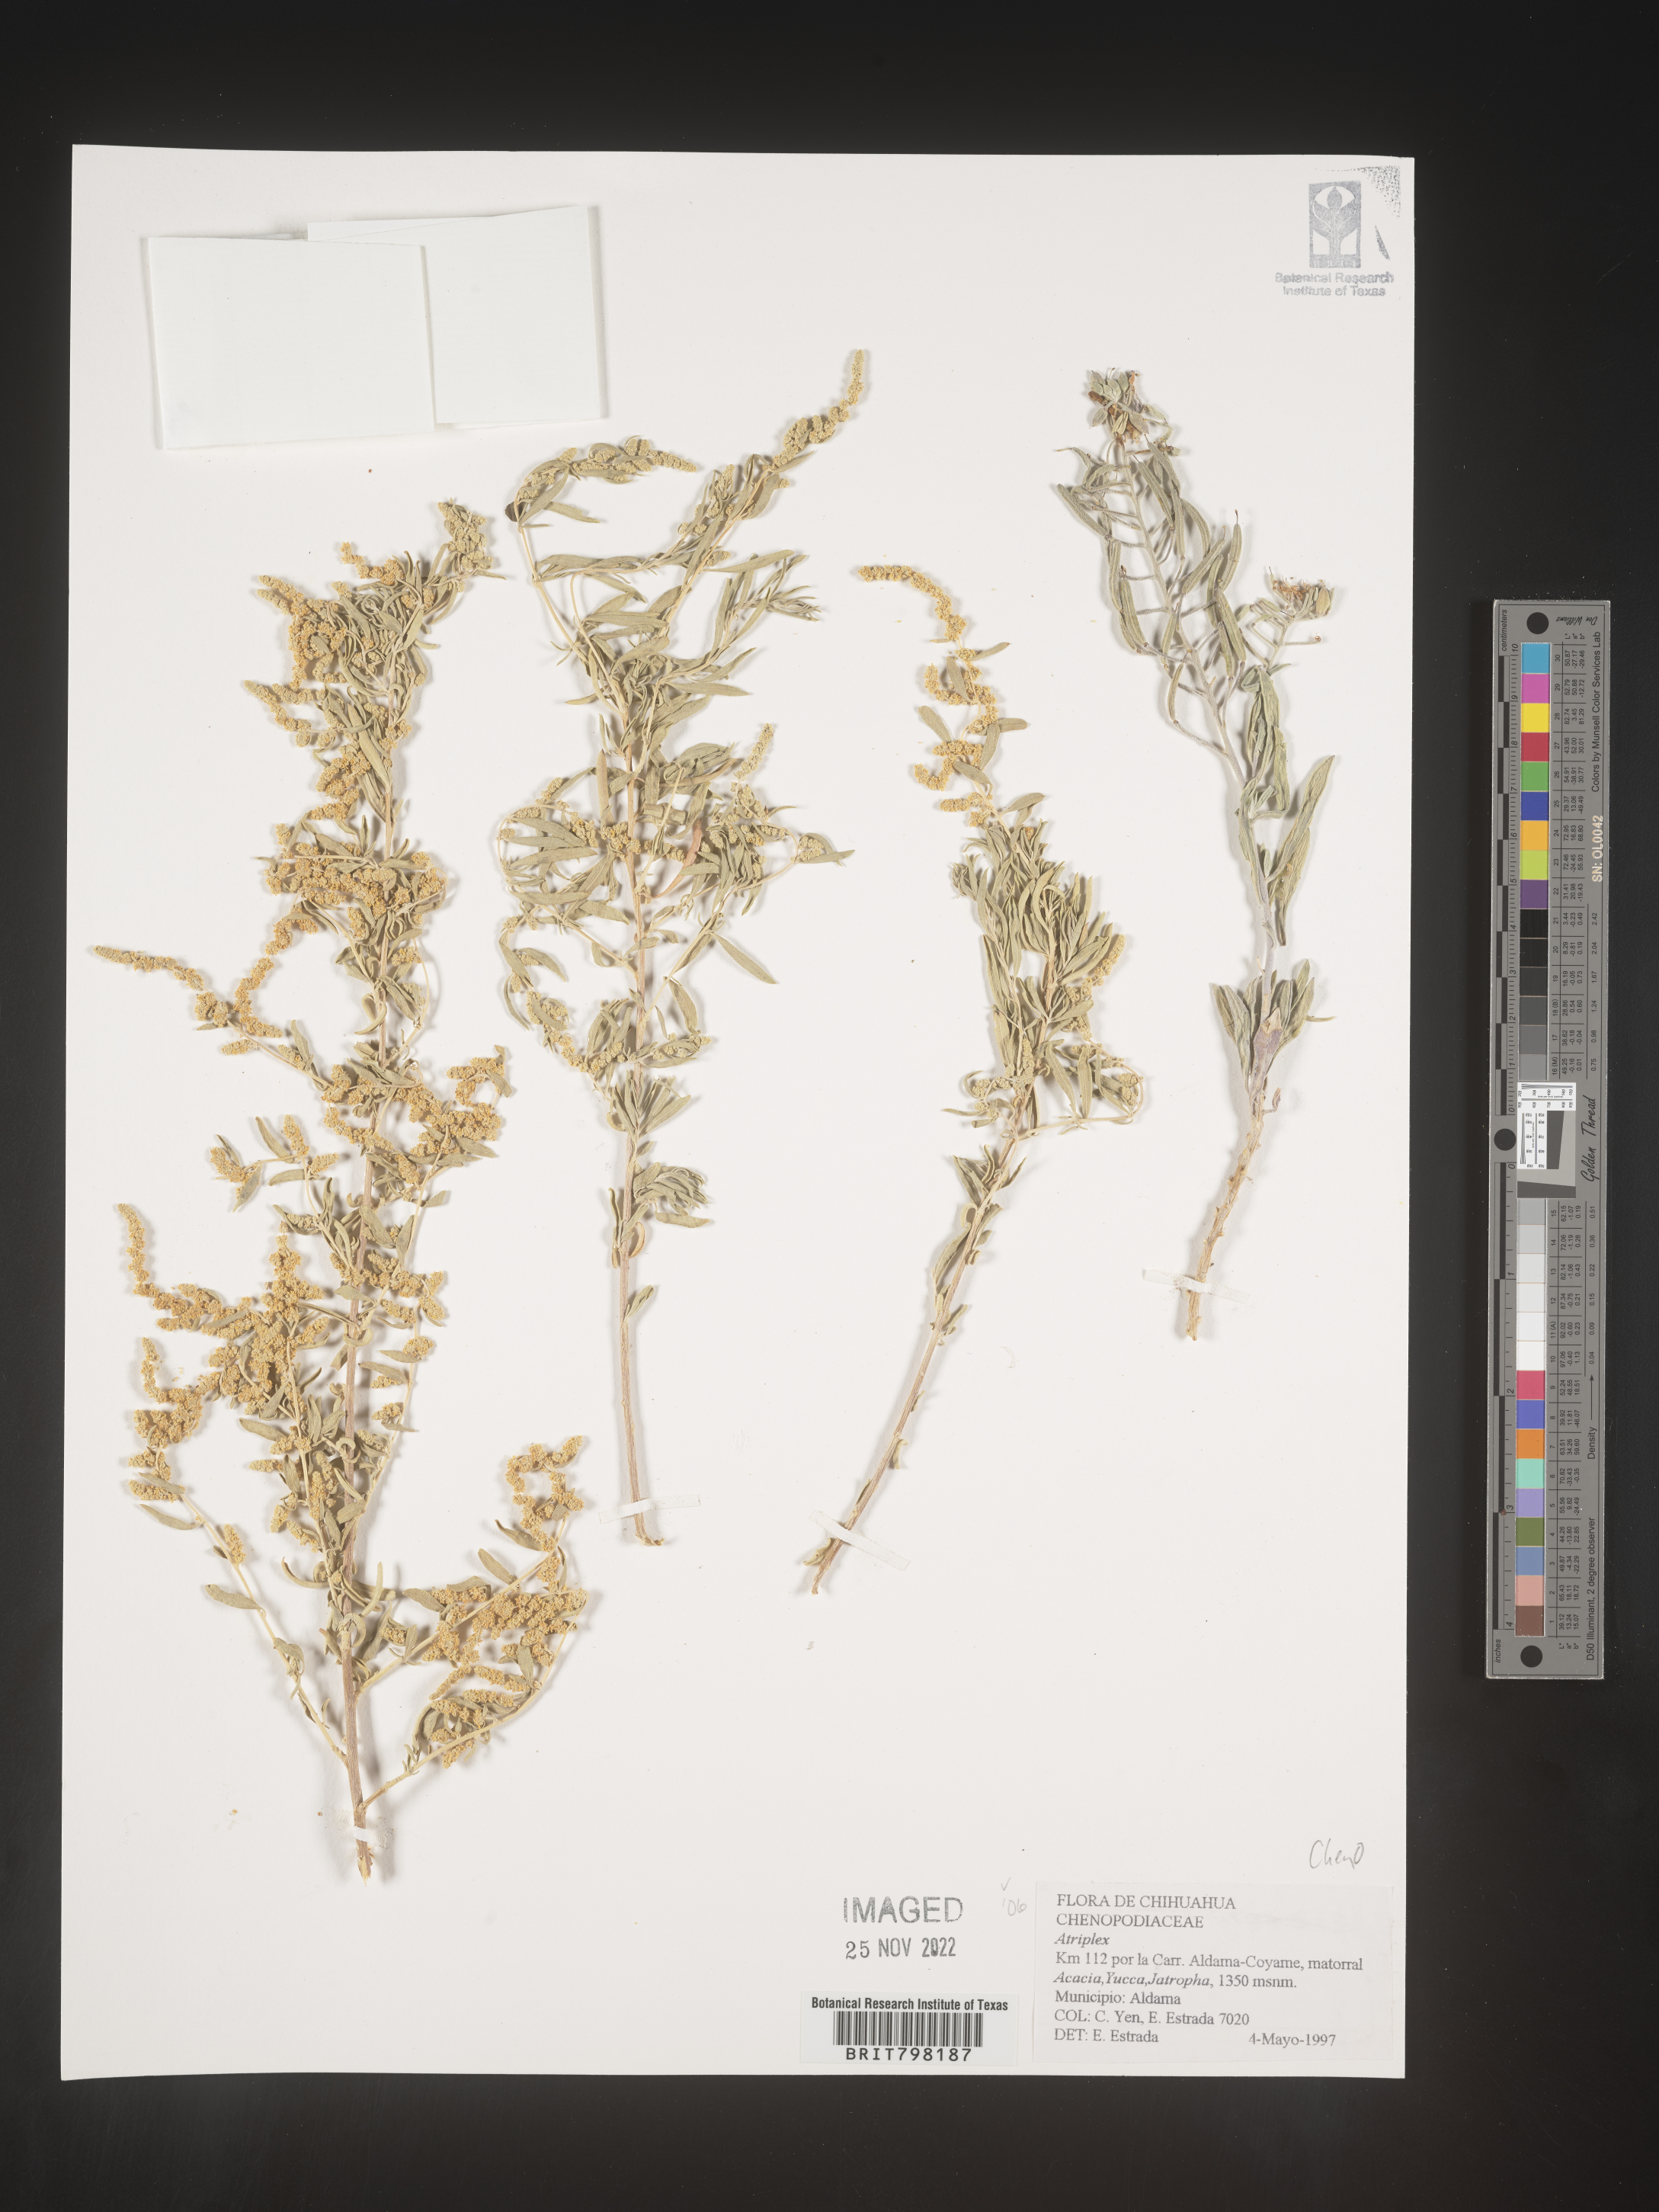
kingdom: Plantae
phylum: Tracheophyta
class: Magnoliopsida
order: Caryophyllales
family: Amaranthaceae
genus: Atriplex
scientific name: Atriplex
